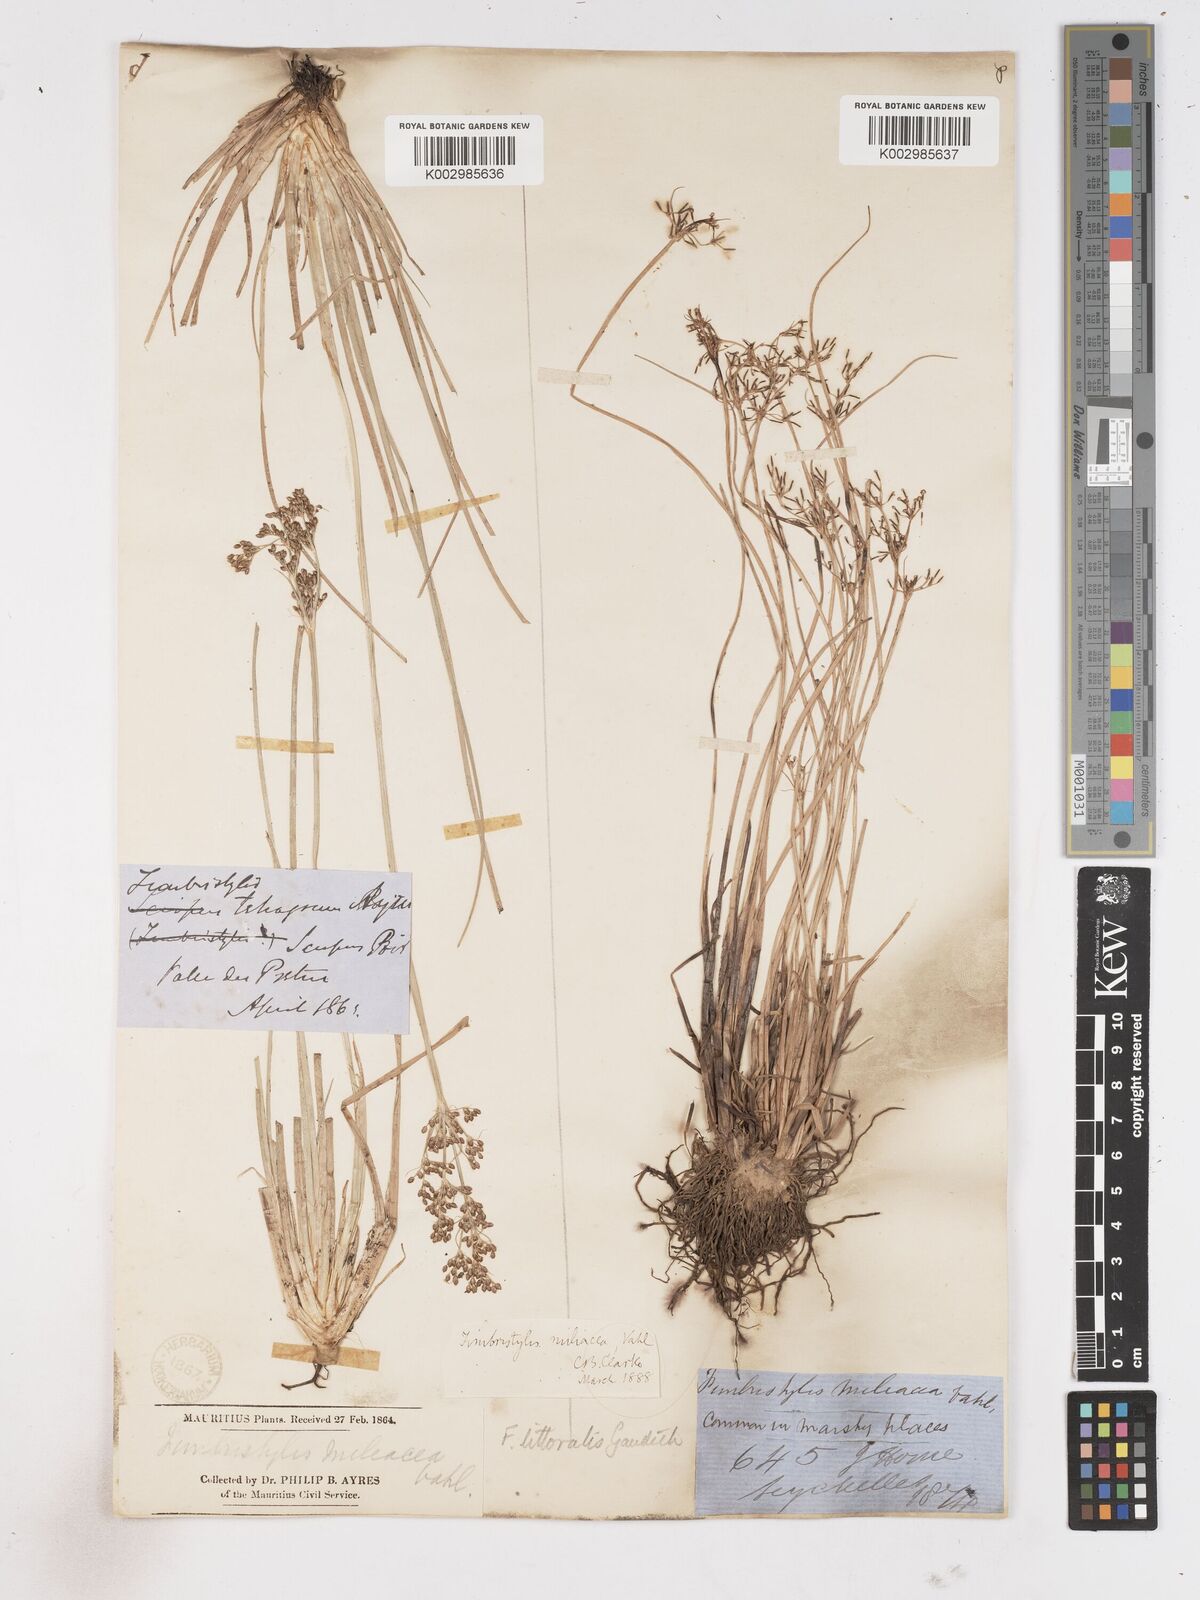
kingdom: Plantae
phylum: Tracheophyta
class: Liliopsida
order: Poales
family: Cyperaceae
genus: Fimbristylis
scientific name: Fimbristylis littoralis
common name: Fimbry
